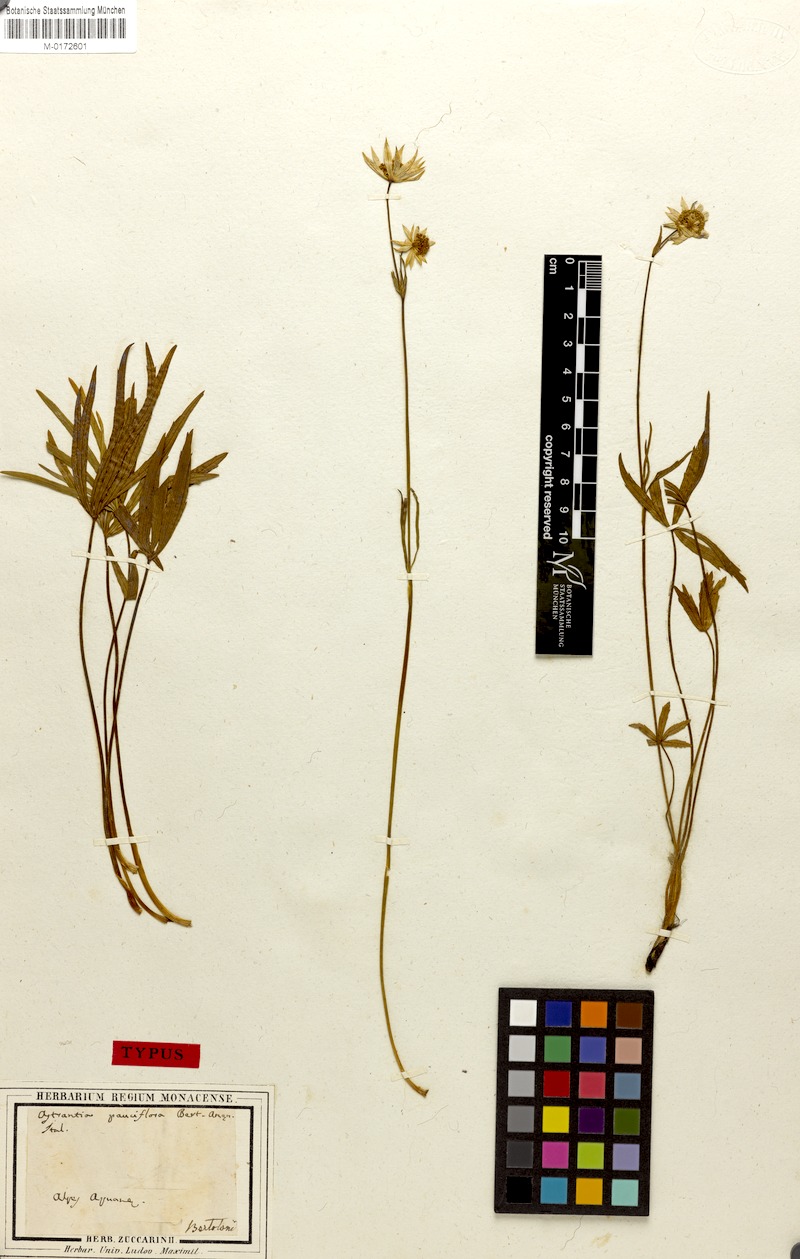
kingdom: Plantae
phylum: Tracheophyta
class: Magnoliopsida
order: Apiales
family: Apiaceae
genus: Astrantia
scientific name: Astrantia pauciflora
